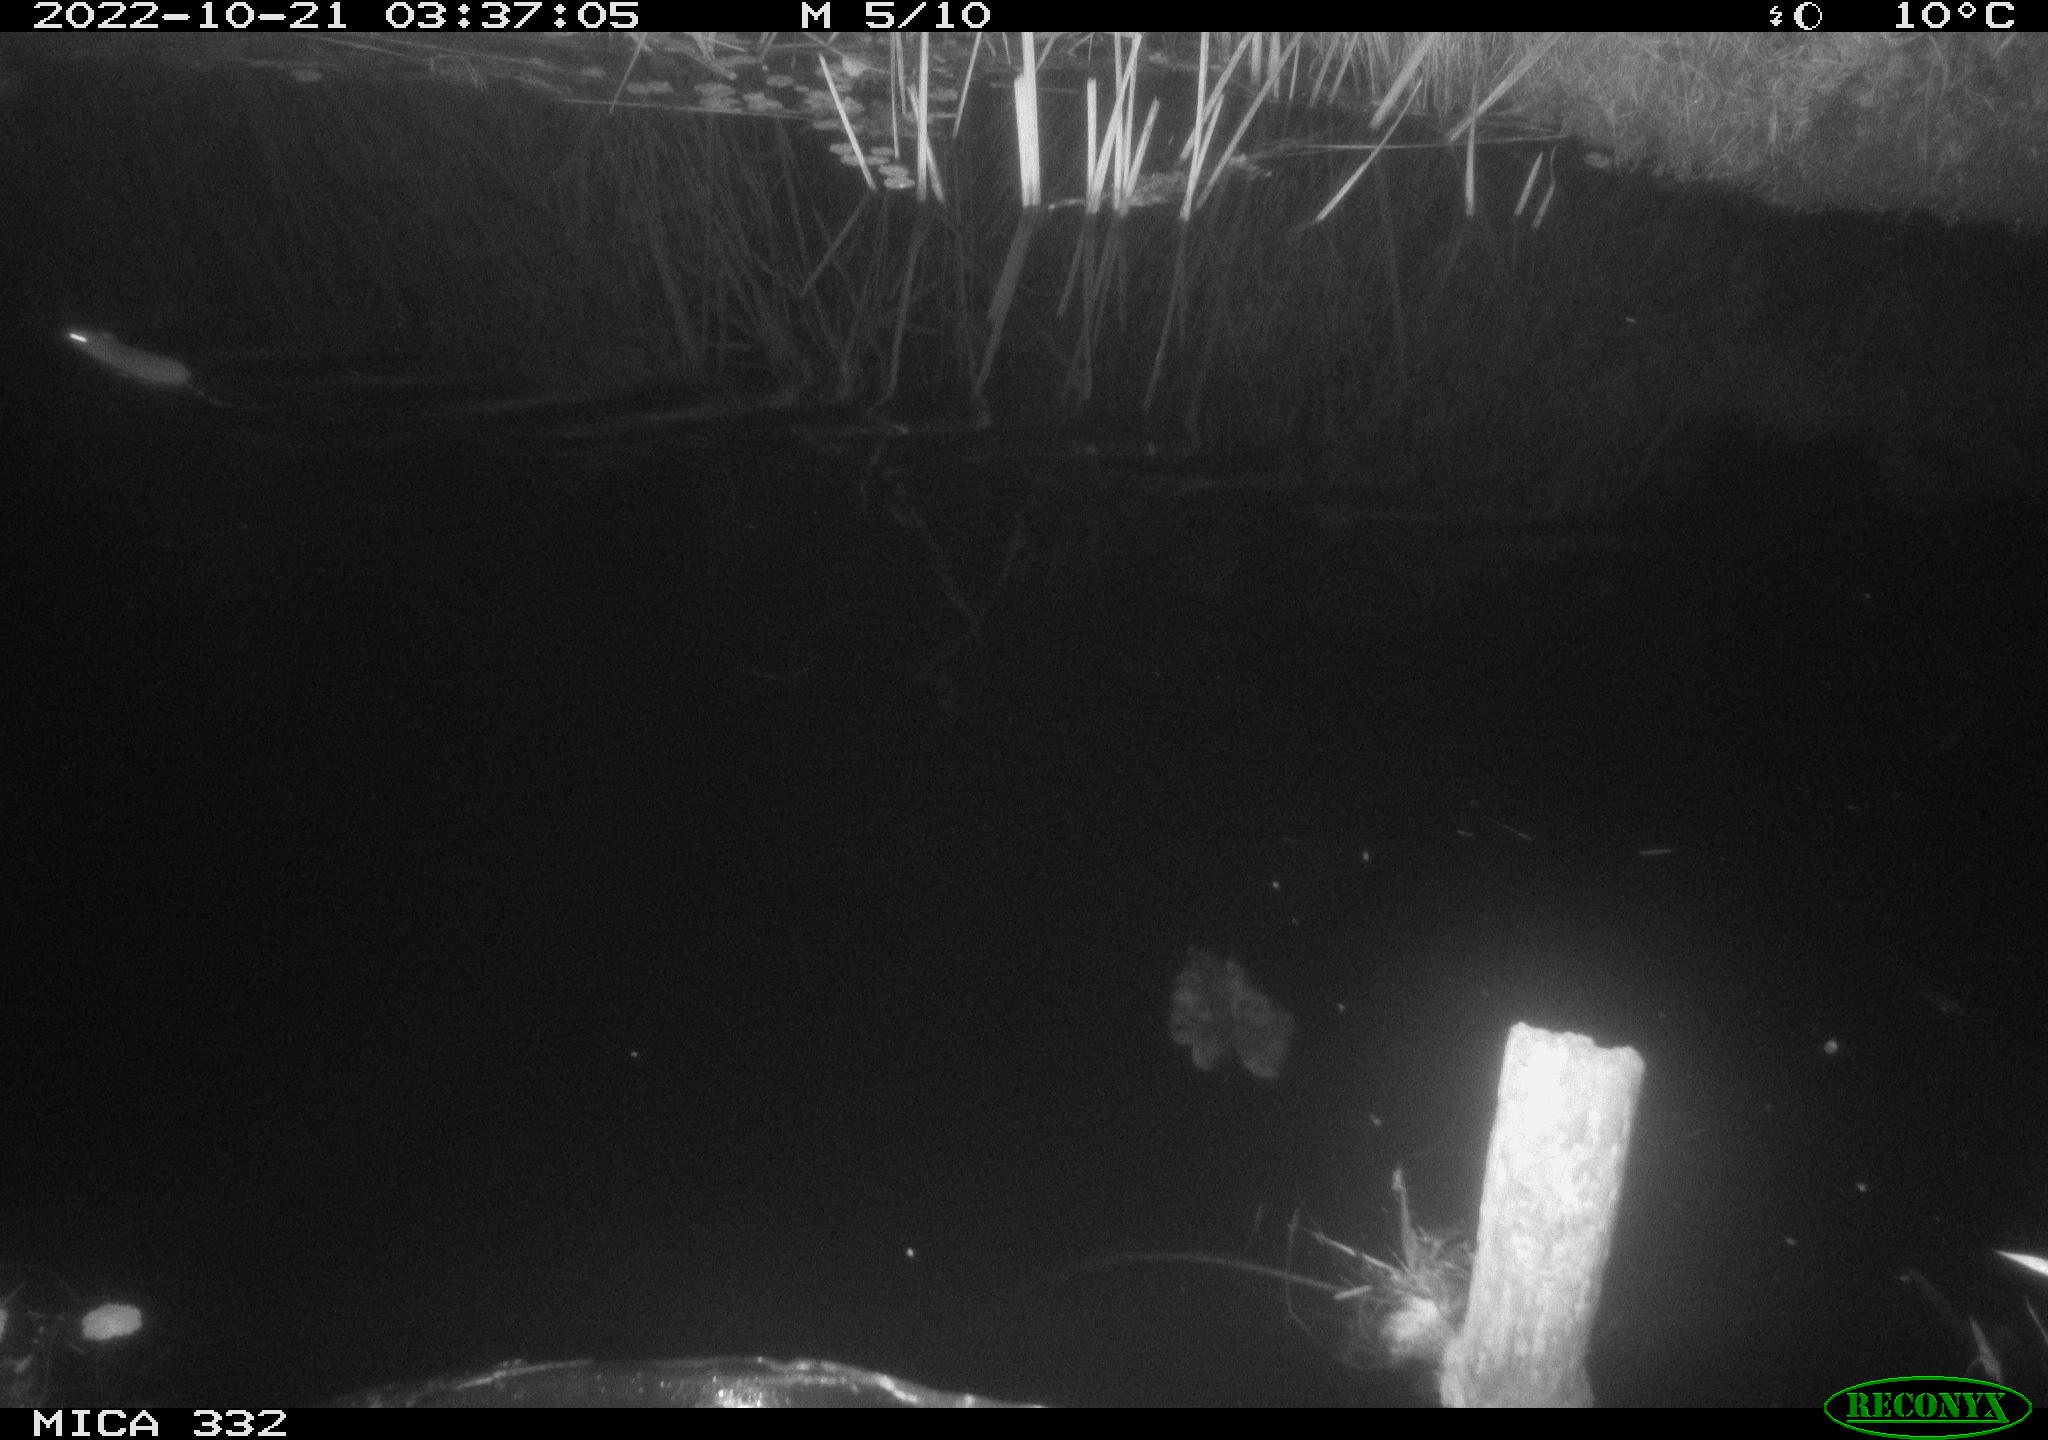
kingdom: Animalia
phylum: Chordata
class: Mammalia
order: Rodentia
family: Muridae
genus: Rattus
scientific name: Rattus norvegicus
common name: Brown rat
